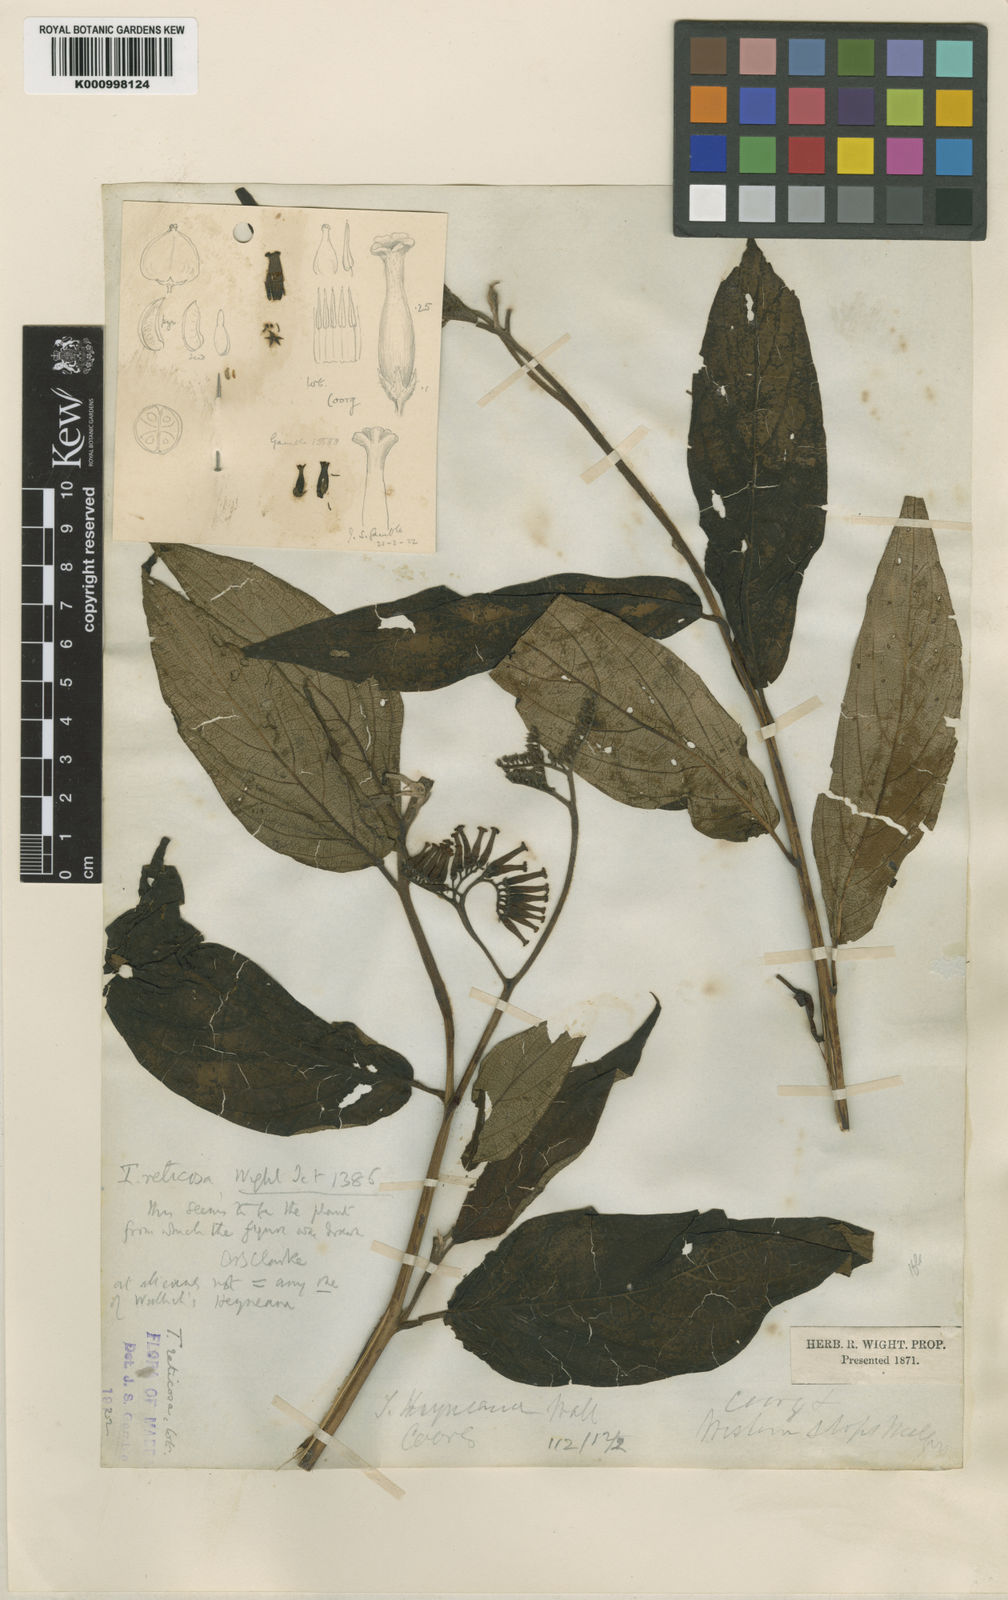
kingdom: Plantae
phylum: Tracheophyta
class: Magnoliopsida
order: Boraginales
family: Heliotropiaceae
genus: Tournefortia
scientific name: Tournefortia
